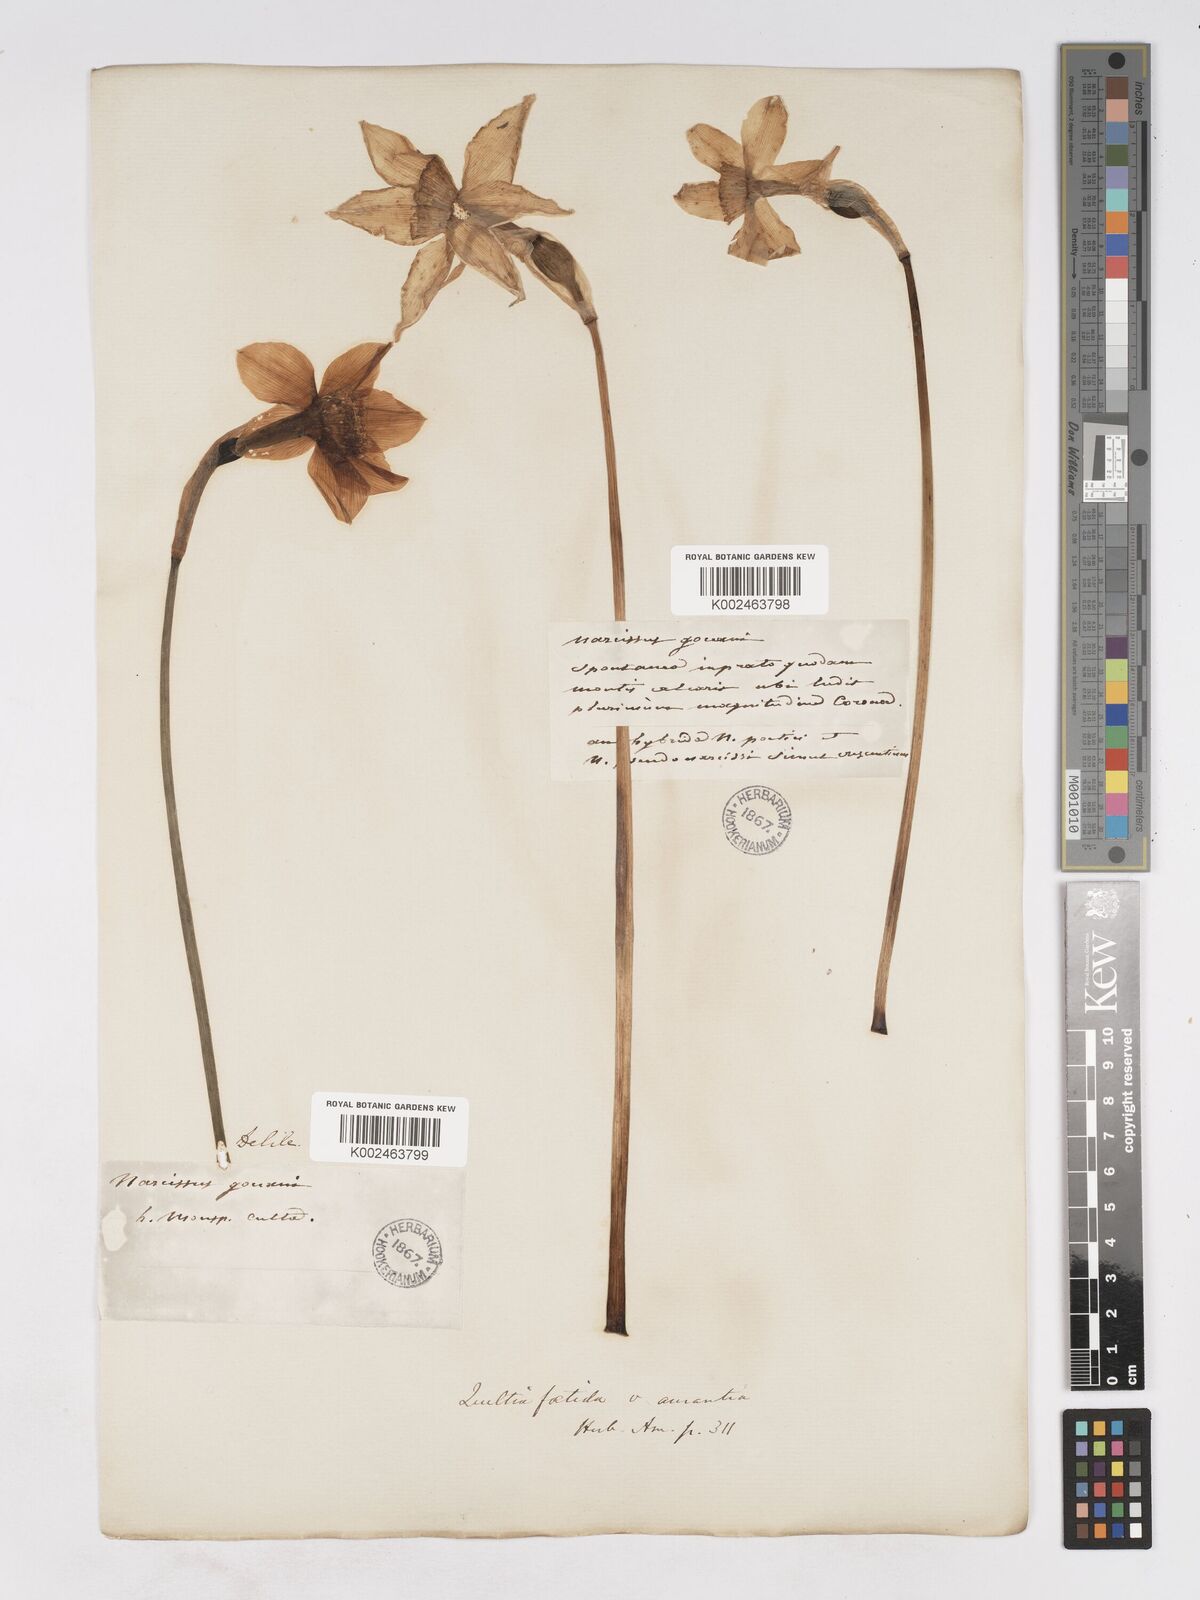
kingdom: Plantae
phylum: Tracheophyta
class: Liliopsida
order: Asparagales
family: Amaryllidaceae
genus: Narcissus
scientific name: Narcissus incomparabilis
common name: Nonesuch daffodil
